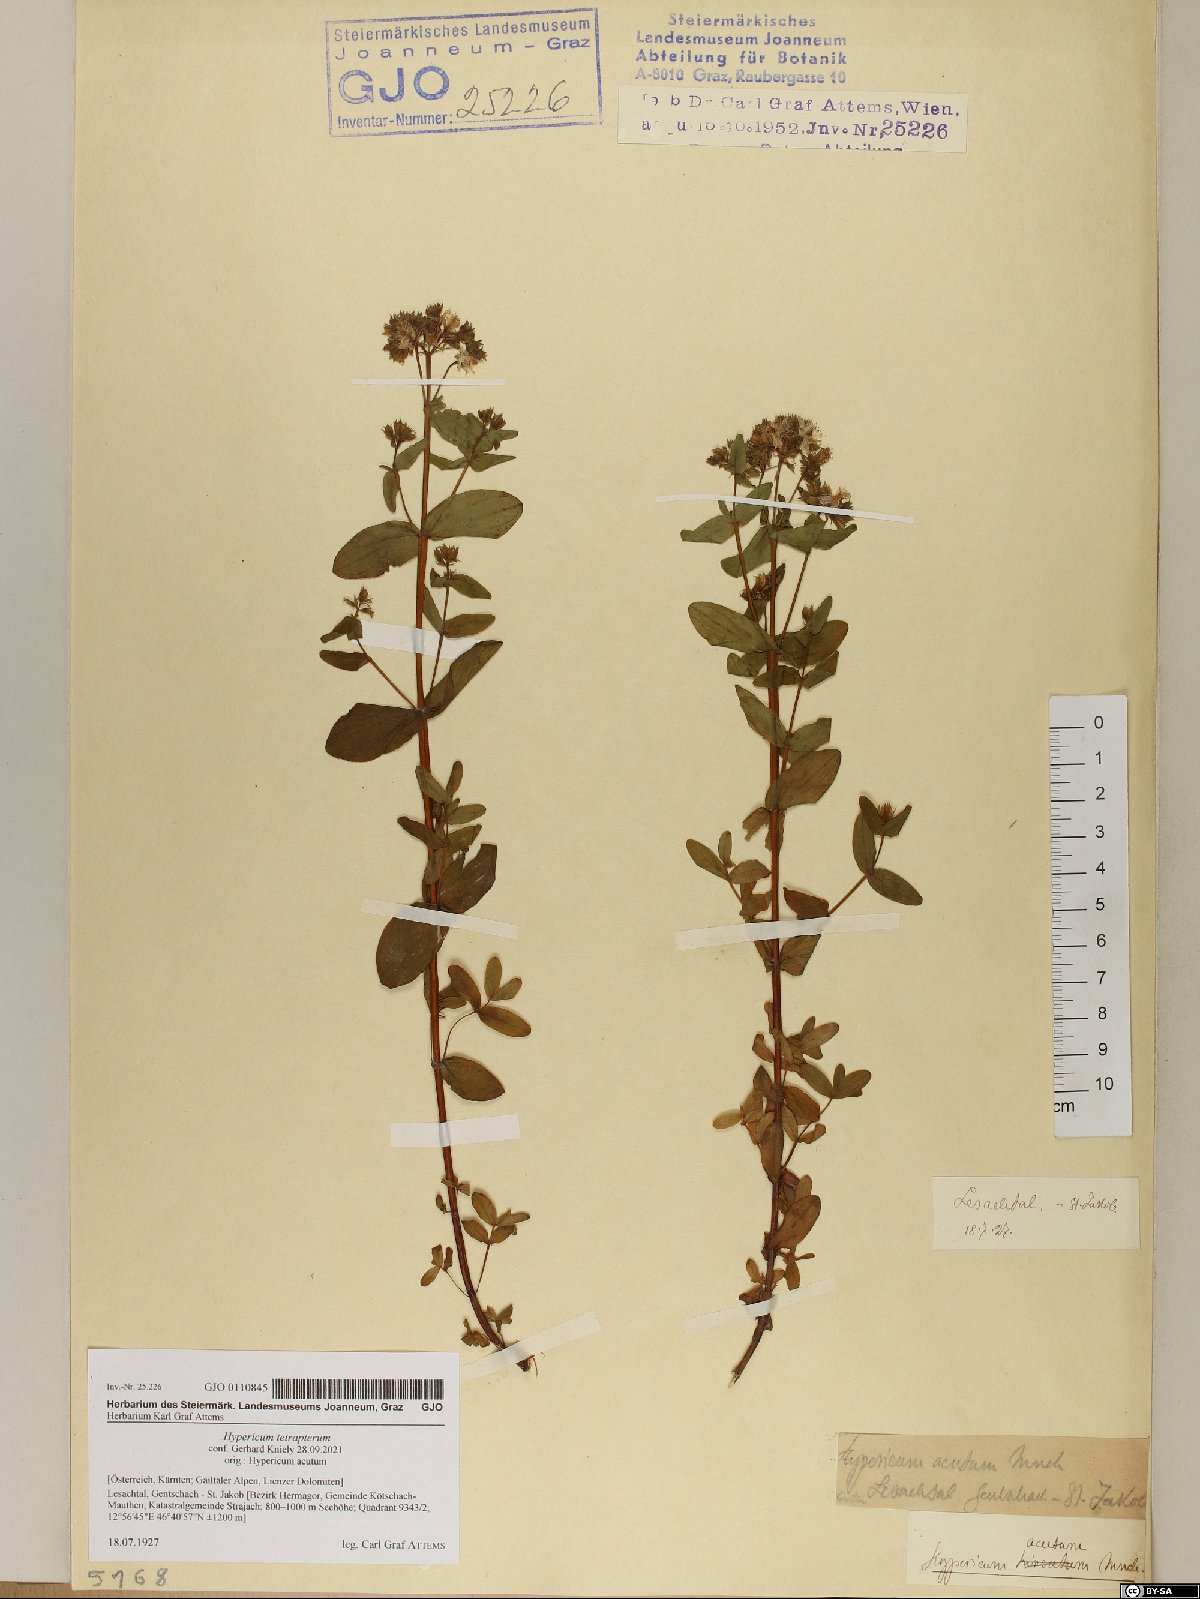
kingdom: Plantae
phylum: Tracheophyta
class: Magnoliopsida
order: Malpighiales
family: Hypericaceae
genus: Hypericum
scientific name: Hypericum tetrapterum
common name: Square-stalked st. john's-wort
